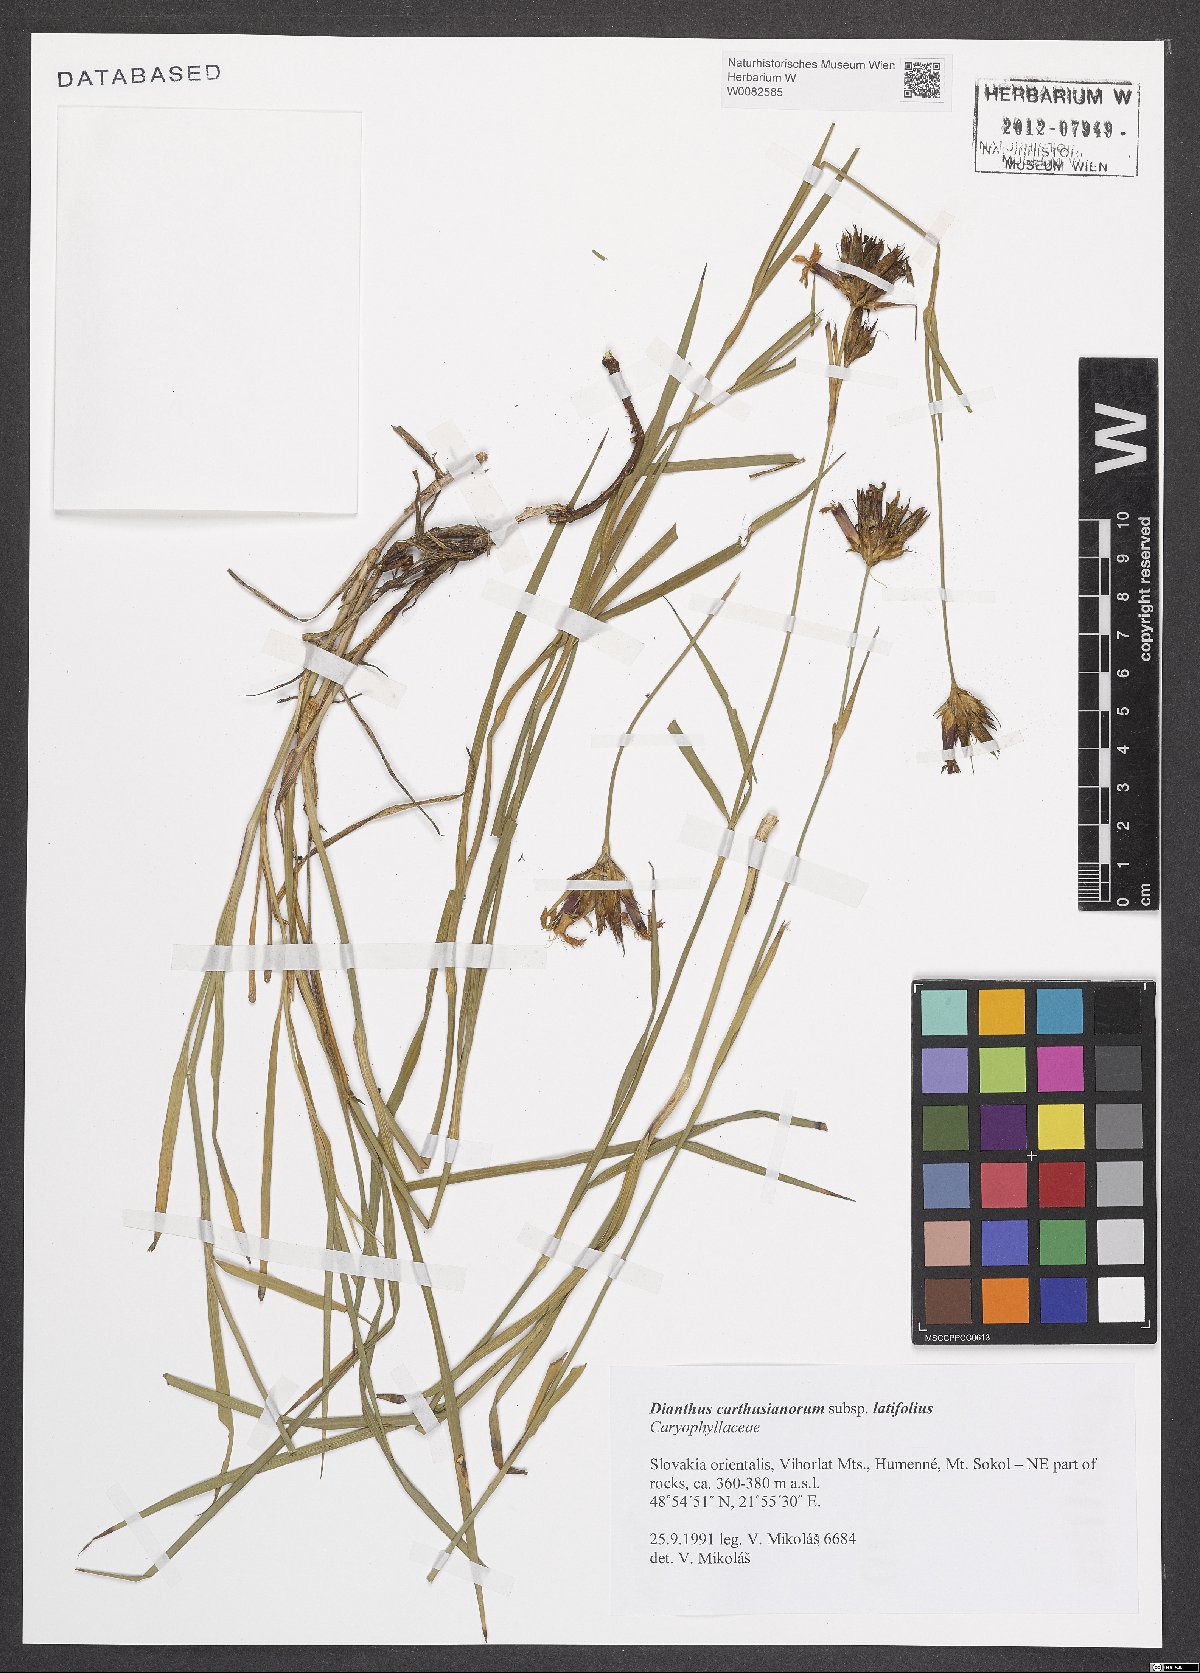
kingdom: Plantae
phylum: Tracheophyta
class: Magnoliopsida
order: Caryophyllales
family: Caryophyllaceae
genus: Dianthus
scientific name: Dianthus carthusianorum
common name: Carthusian pink
